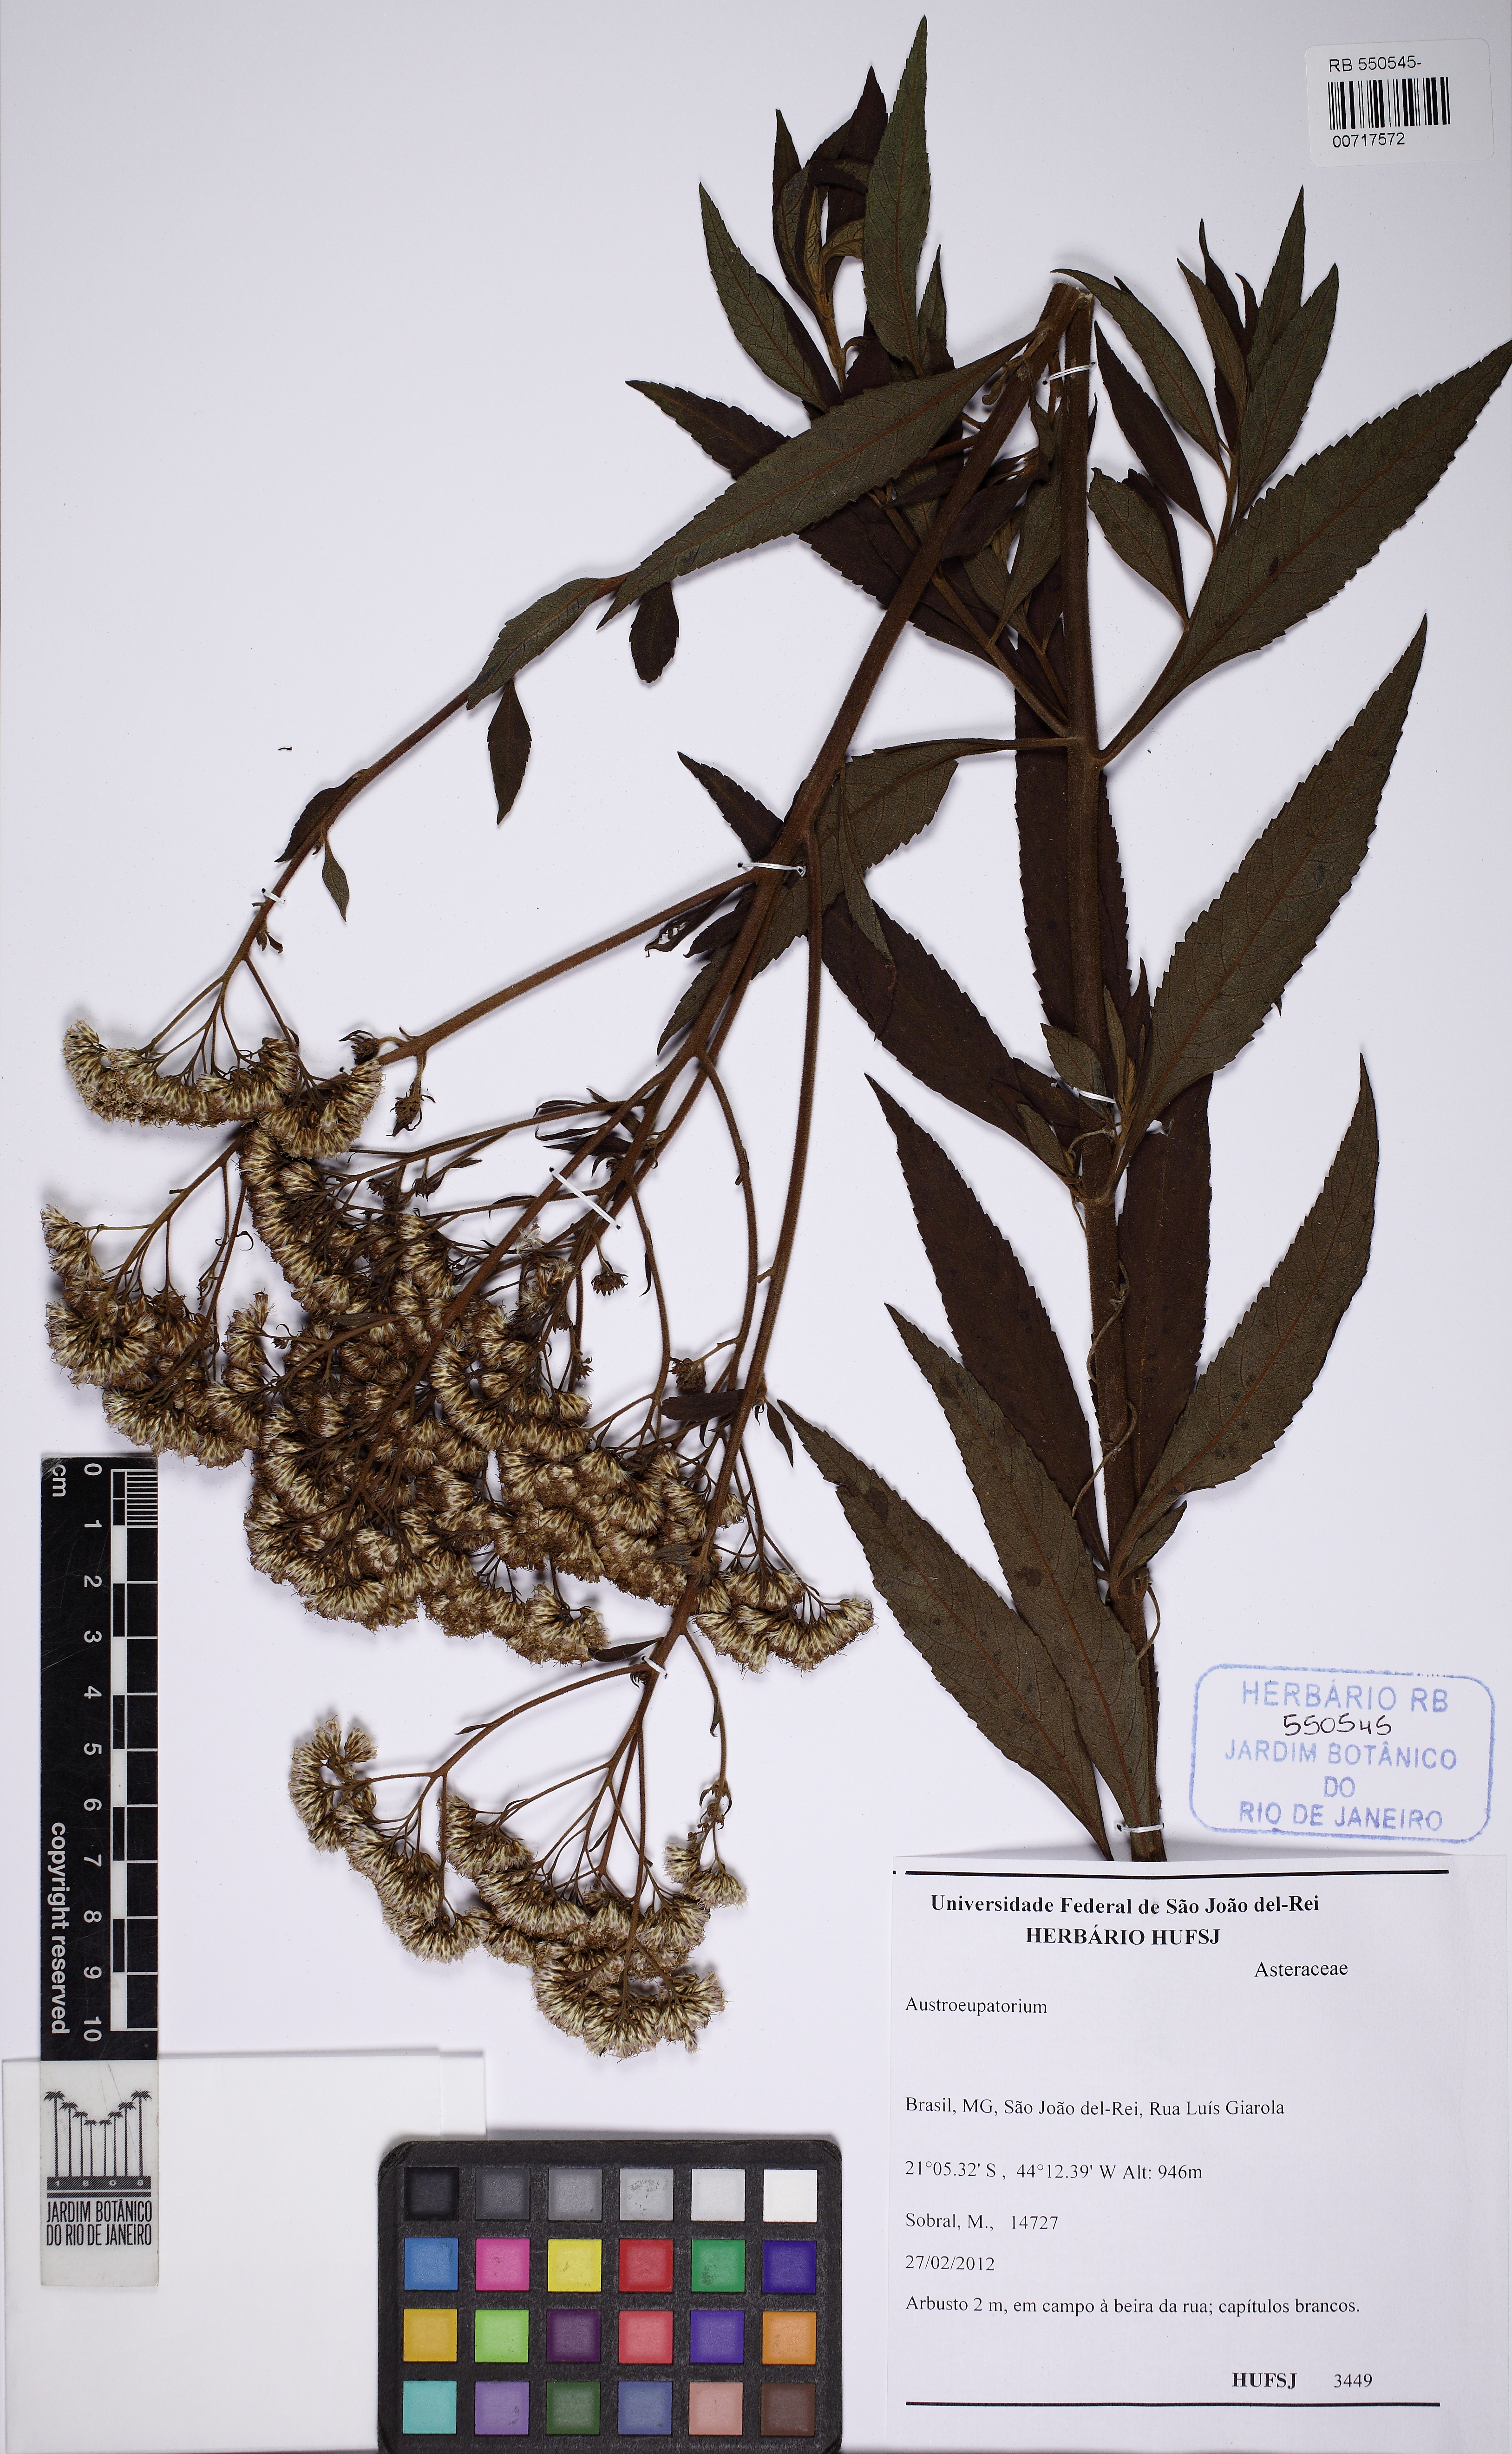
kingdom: Plantae
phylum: Tracheophyta
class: Magnoliopsida
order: Asterales
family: Asteraceae
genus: Austroeupatorium
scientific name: Austroeupatorium
